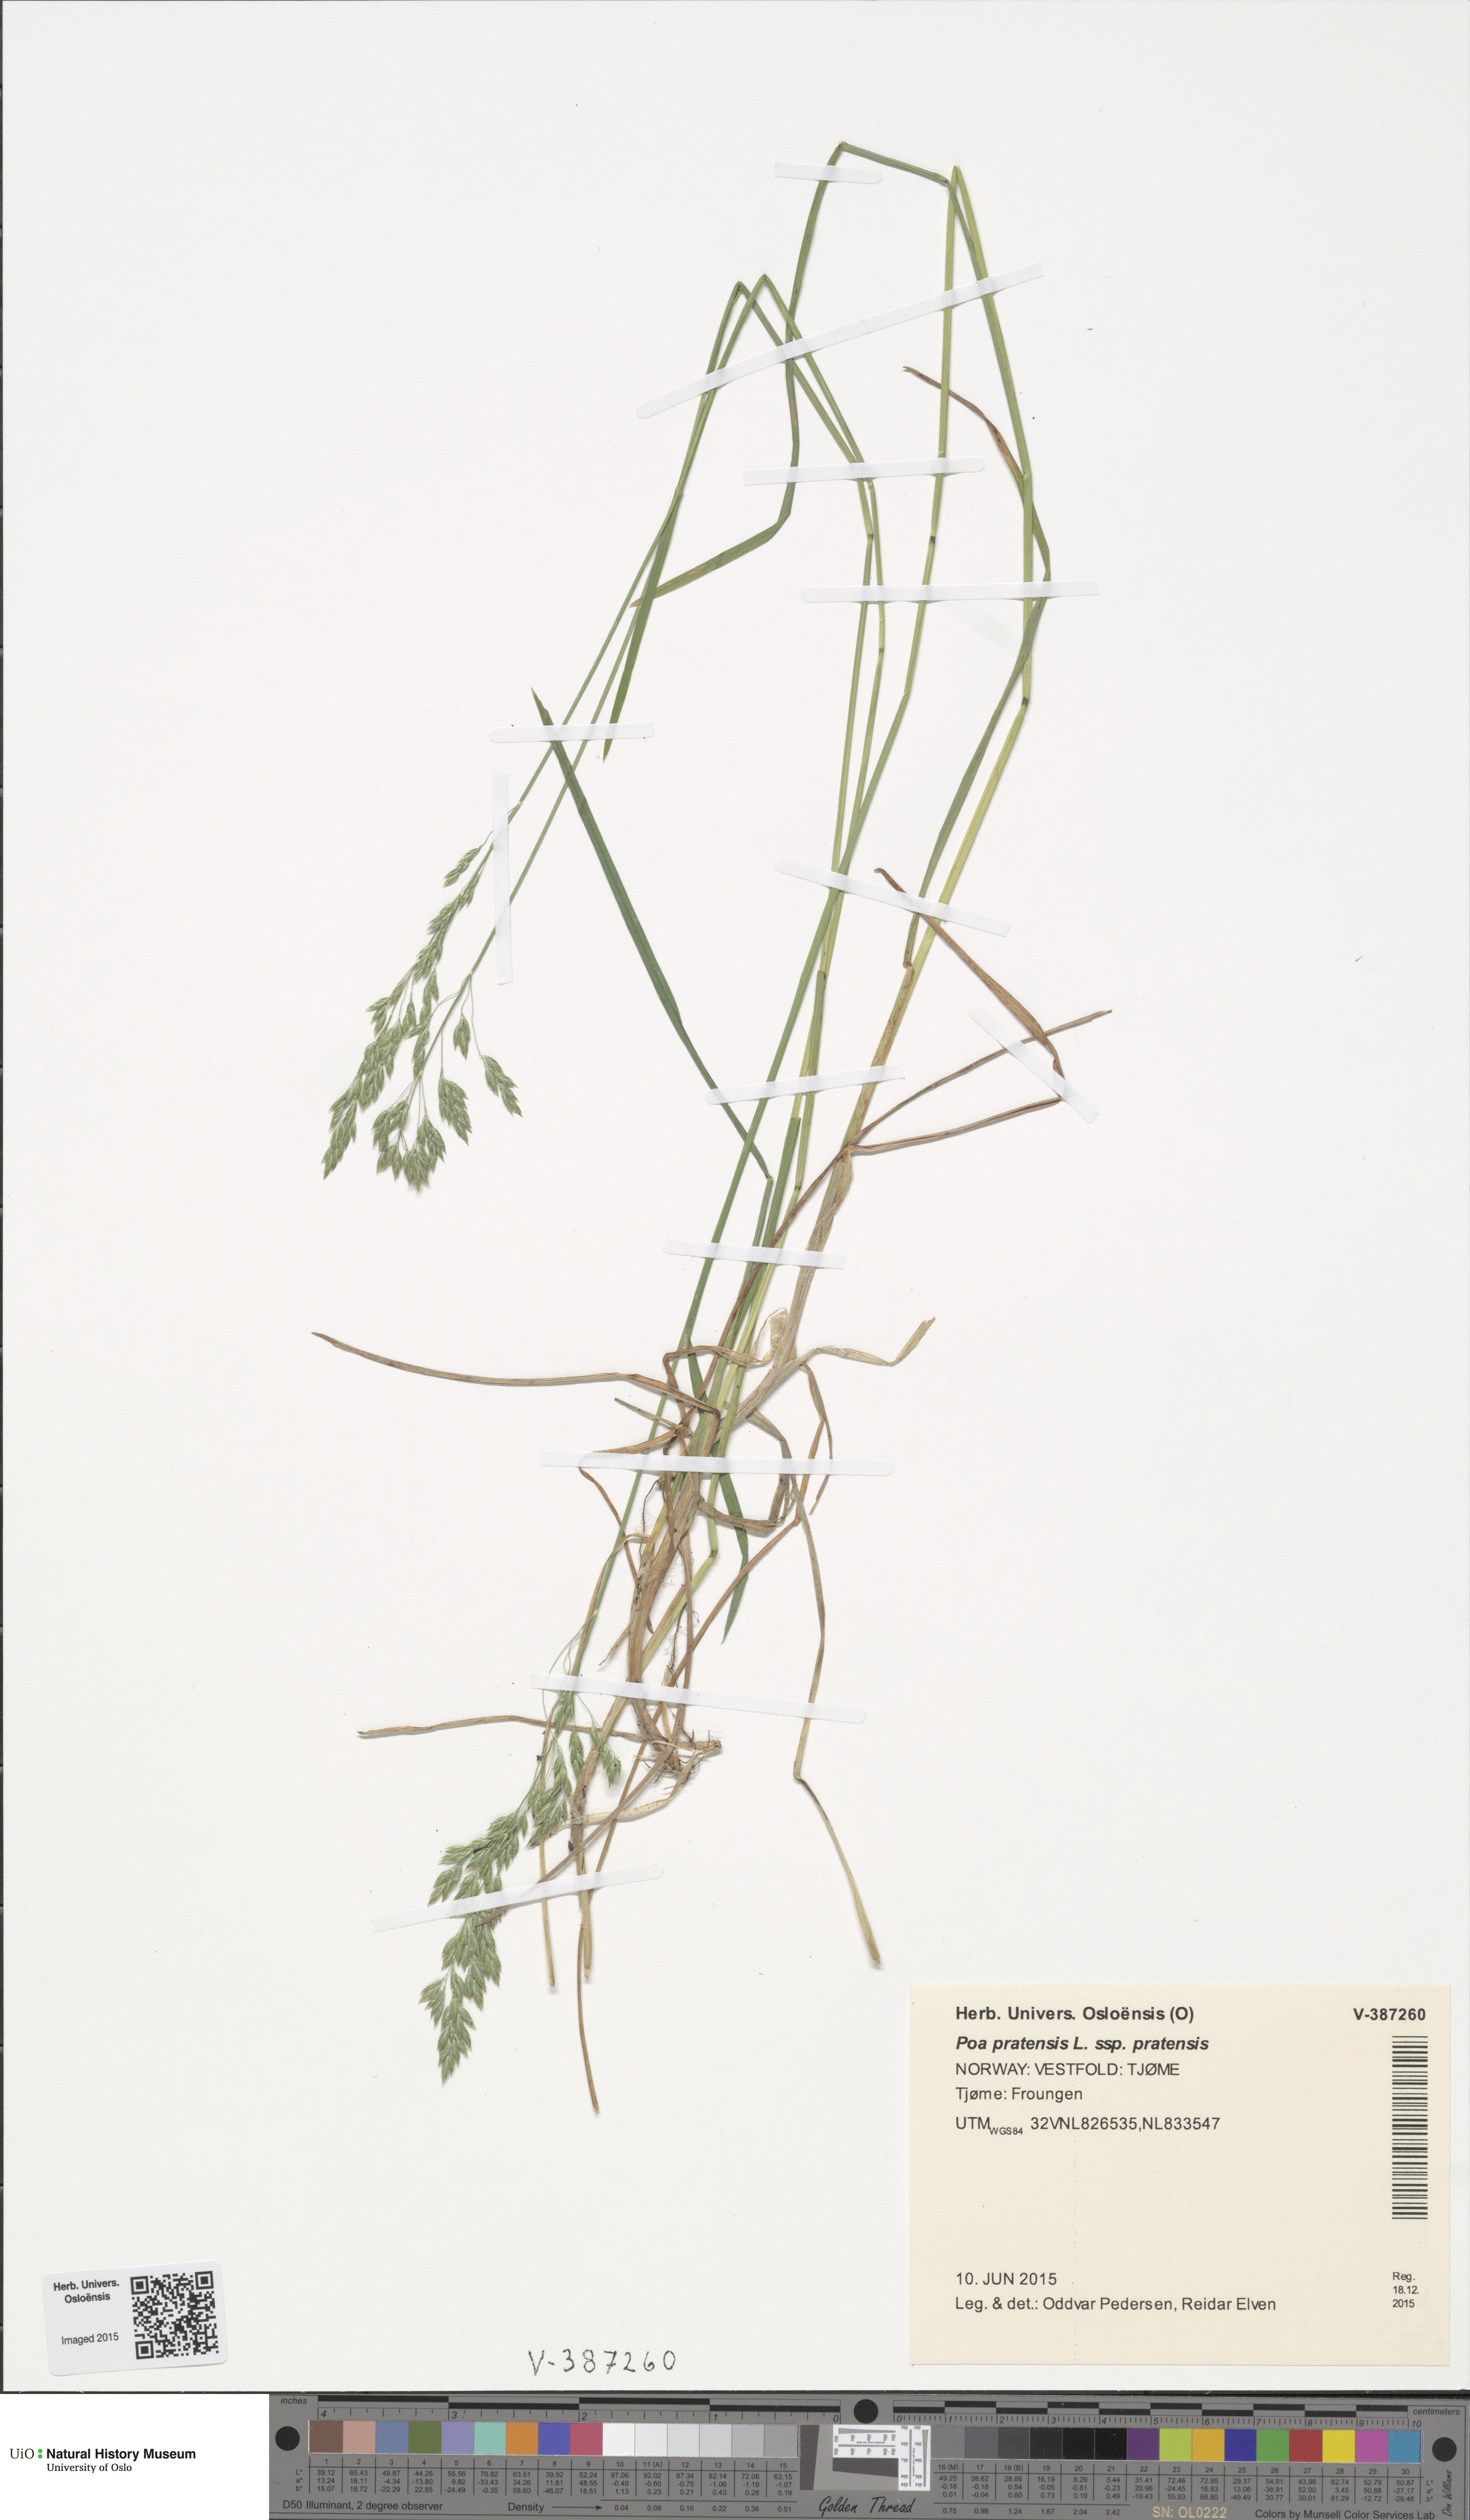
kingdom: Plantae
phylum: Tracheophyta
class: Liliopsida
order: Poales
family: Poaceae
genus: Poa
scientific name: Poa pratensis
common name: Kentucky bluegrass
